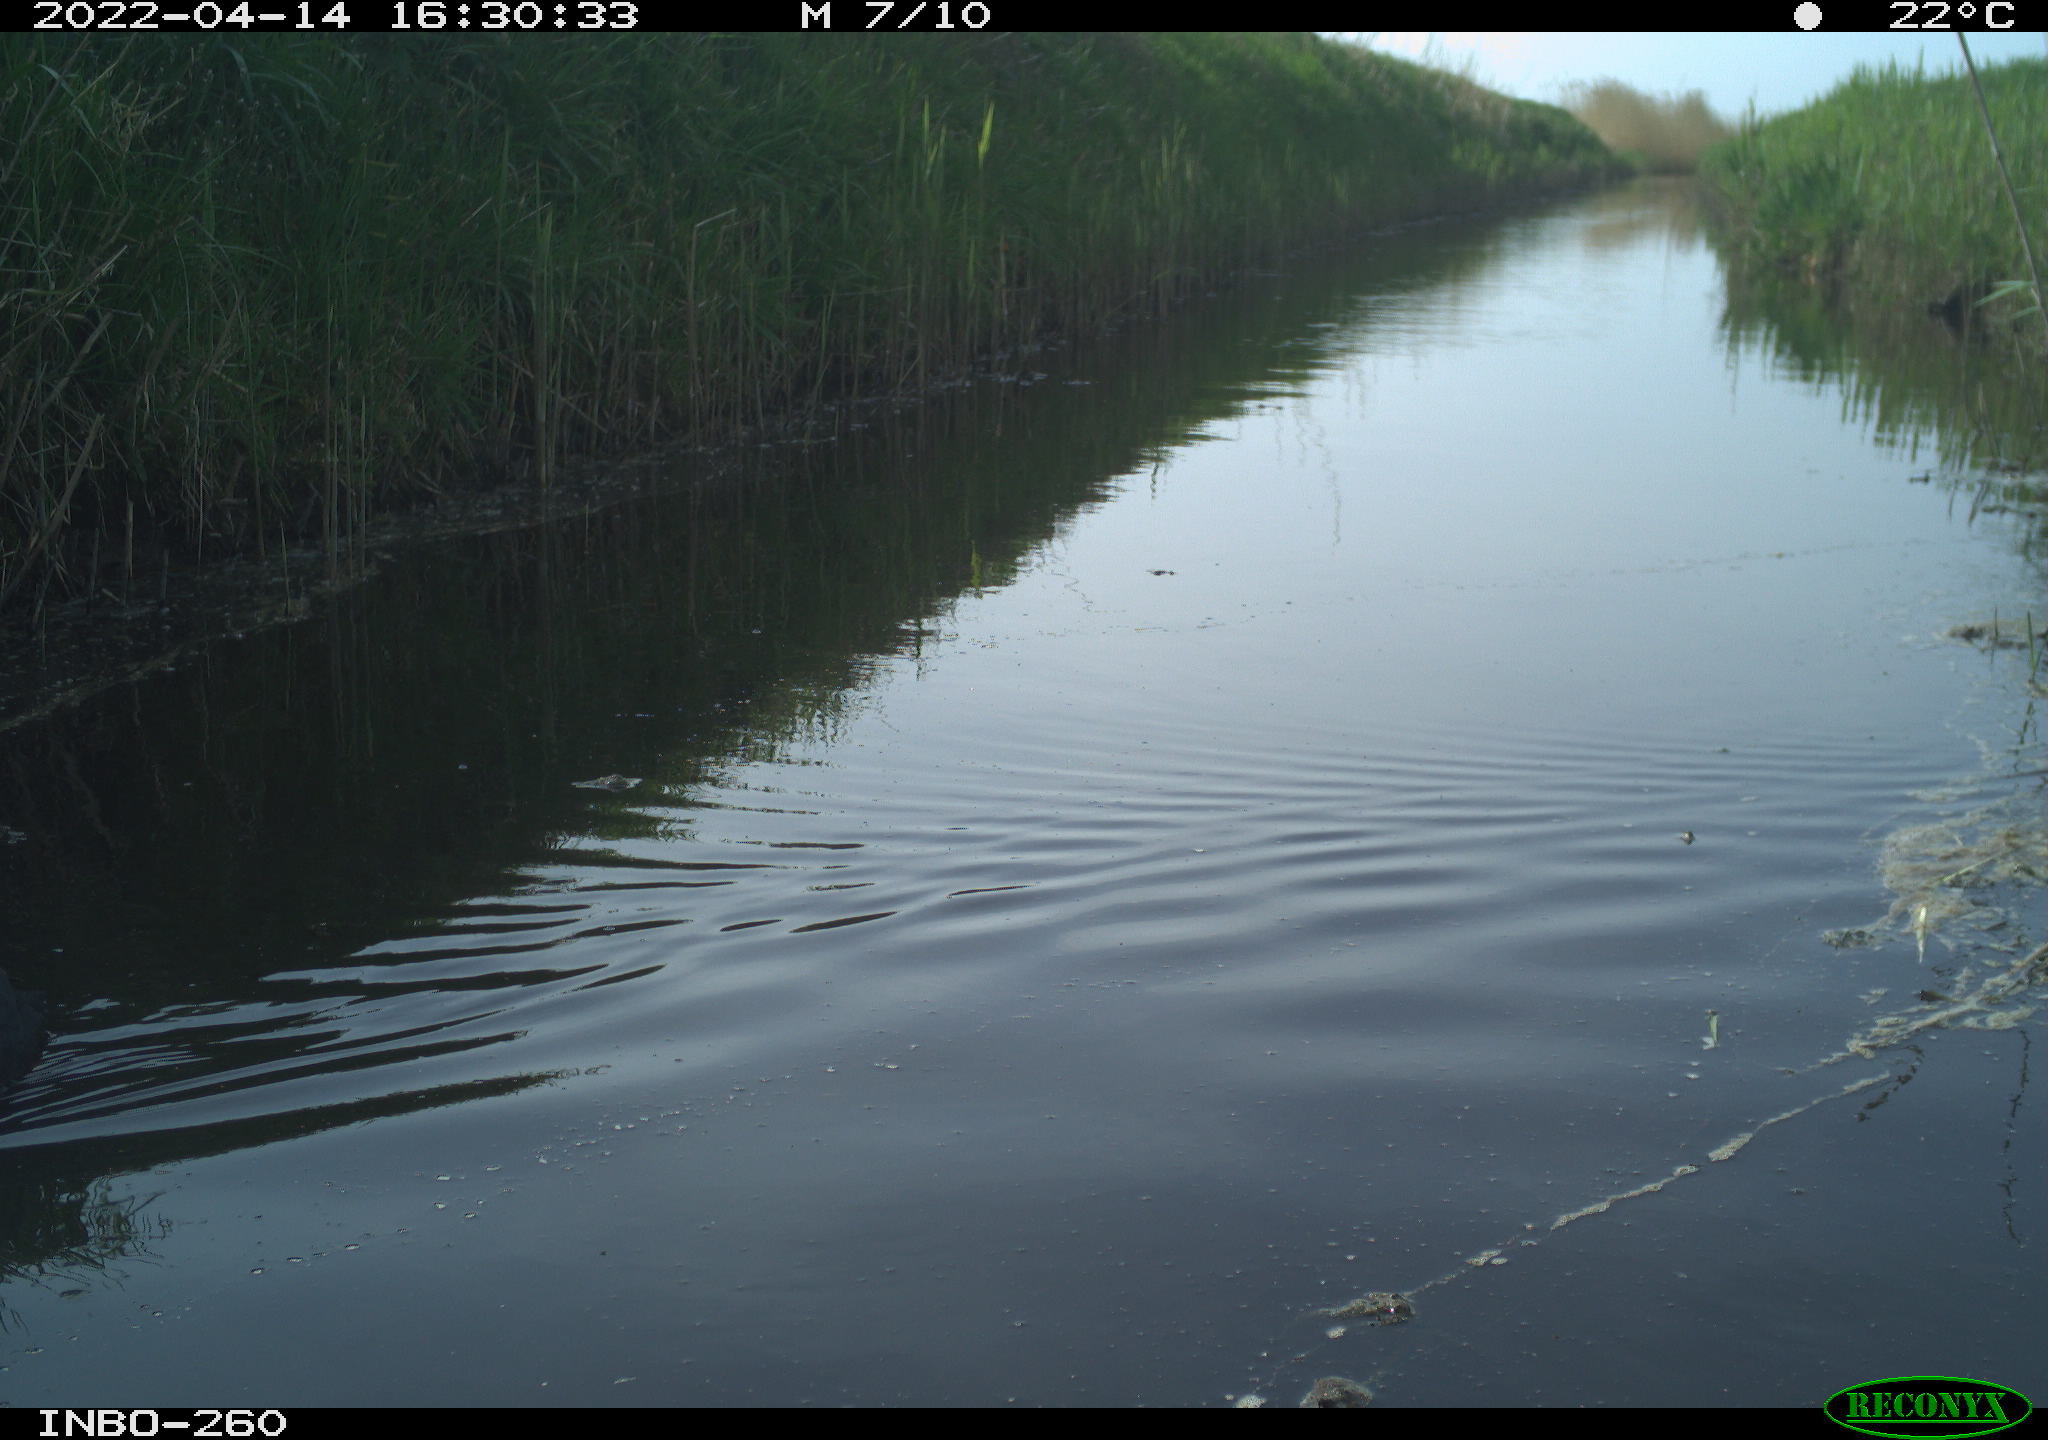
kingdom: Animalia
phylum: Chordata
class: Aves
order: Gruiformes
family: Rallidae
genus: Fulica
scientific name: Fulica atra
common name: Eurasian coot
